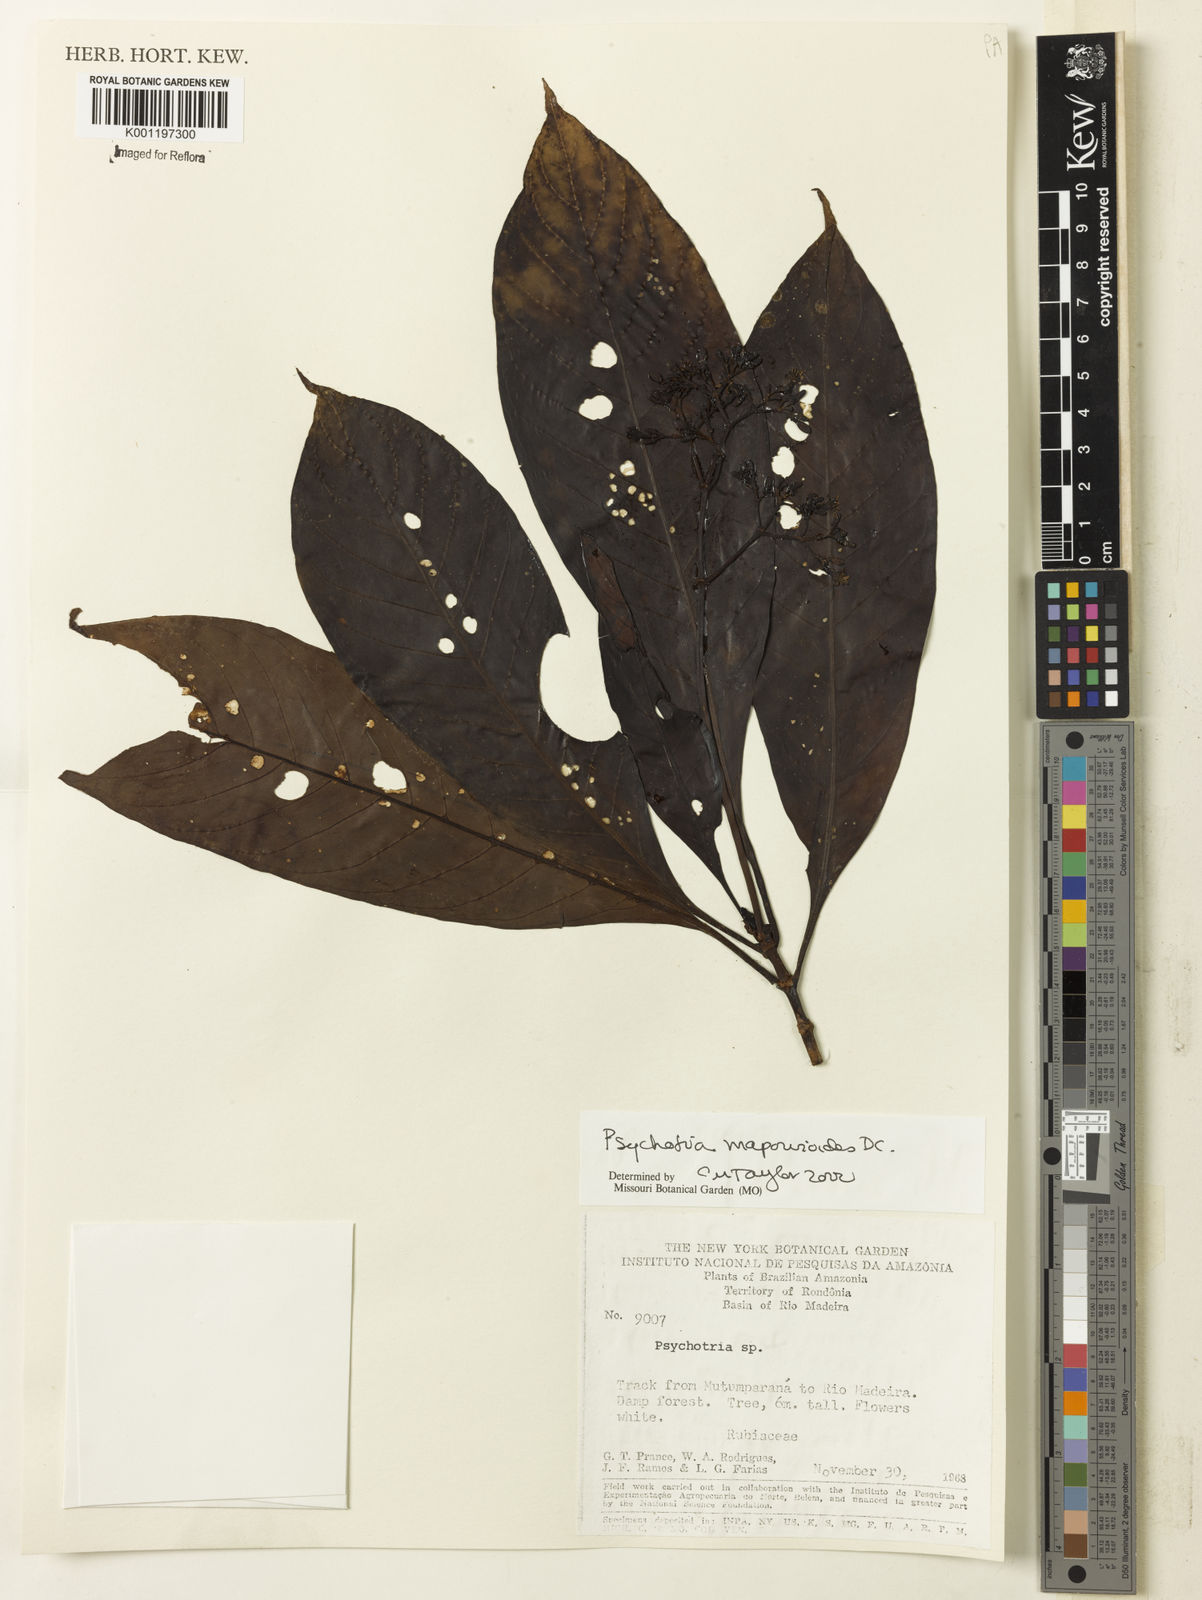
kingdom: Plantae
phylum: Tracheophyta
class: Magnoliopsida
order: Gentianales
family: Rubiaceae
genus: Psychotria
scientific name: Psychotria pedunculosa
